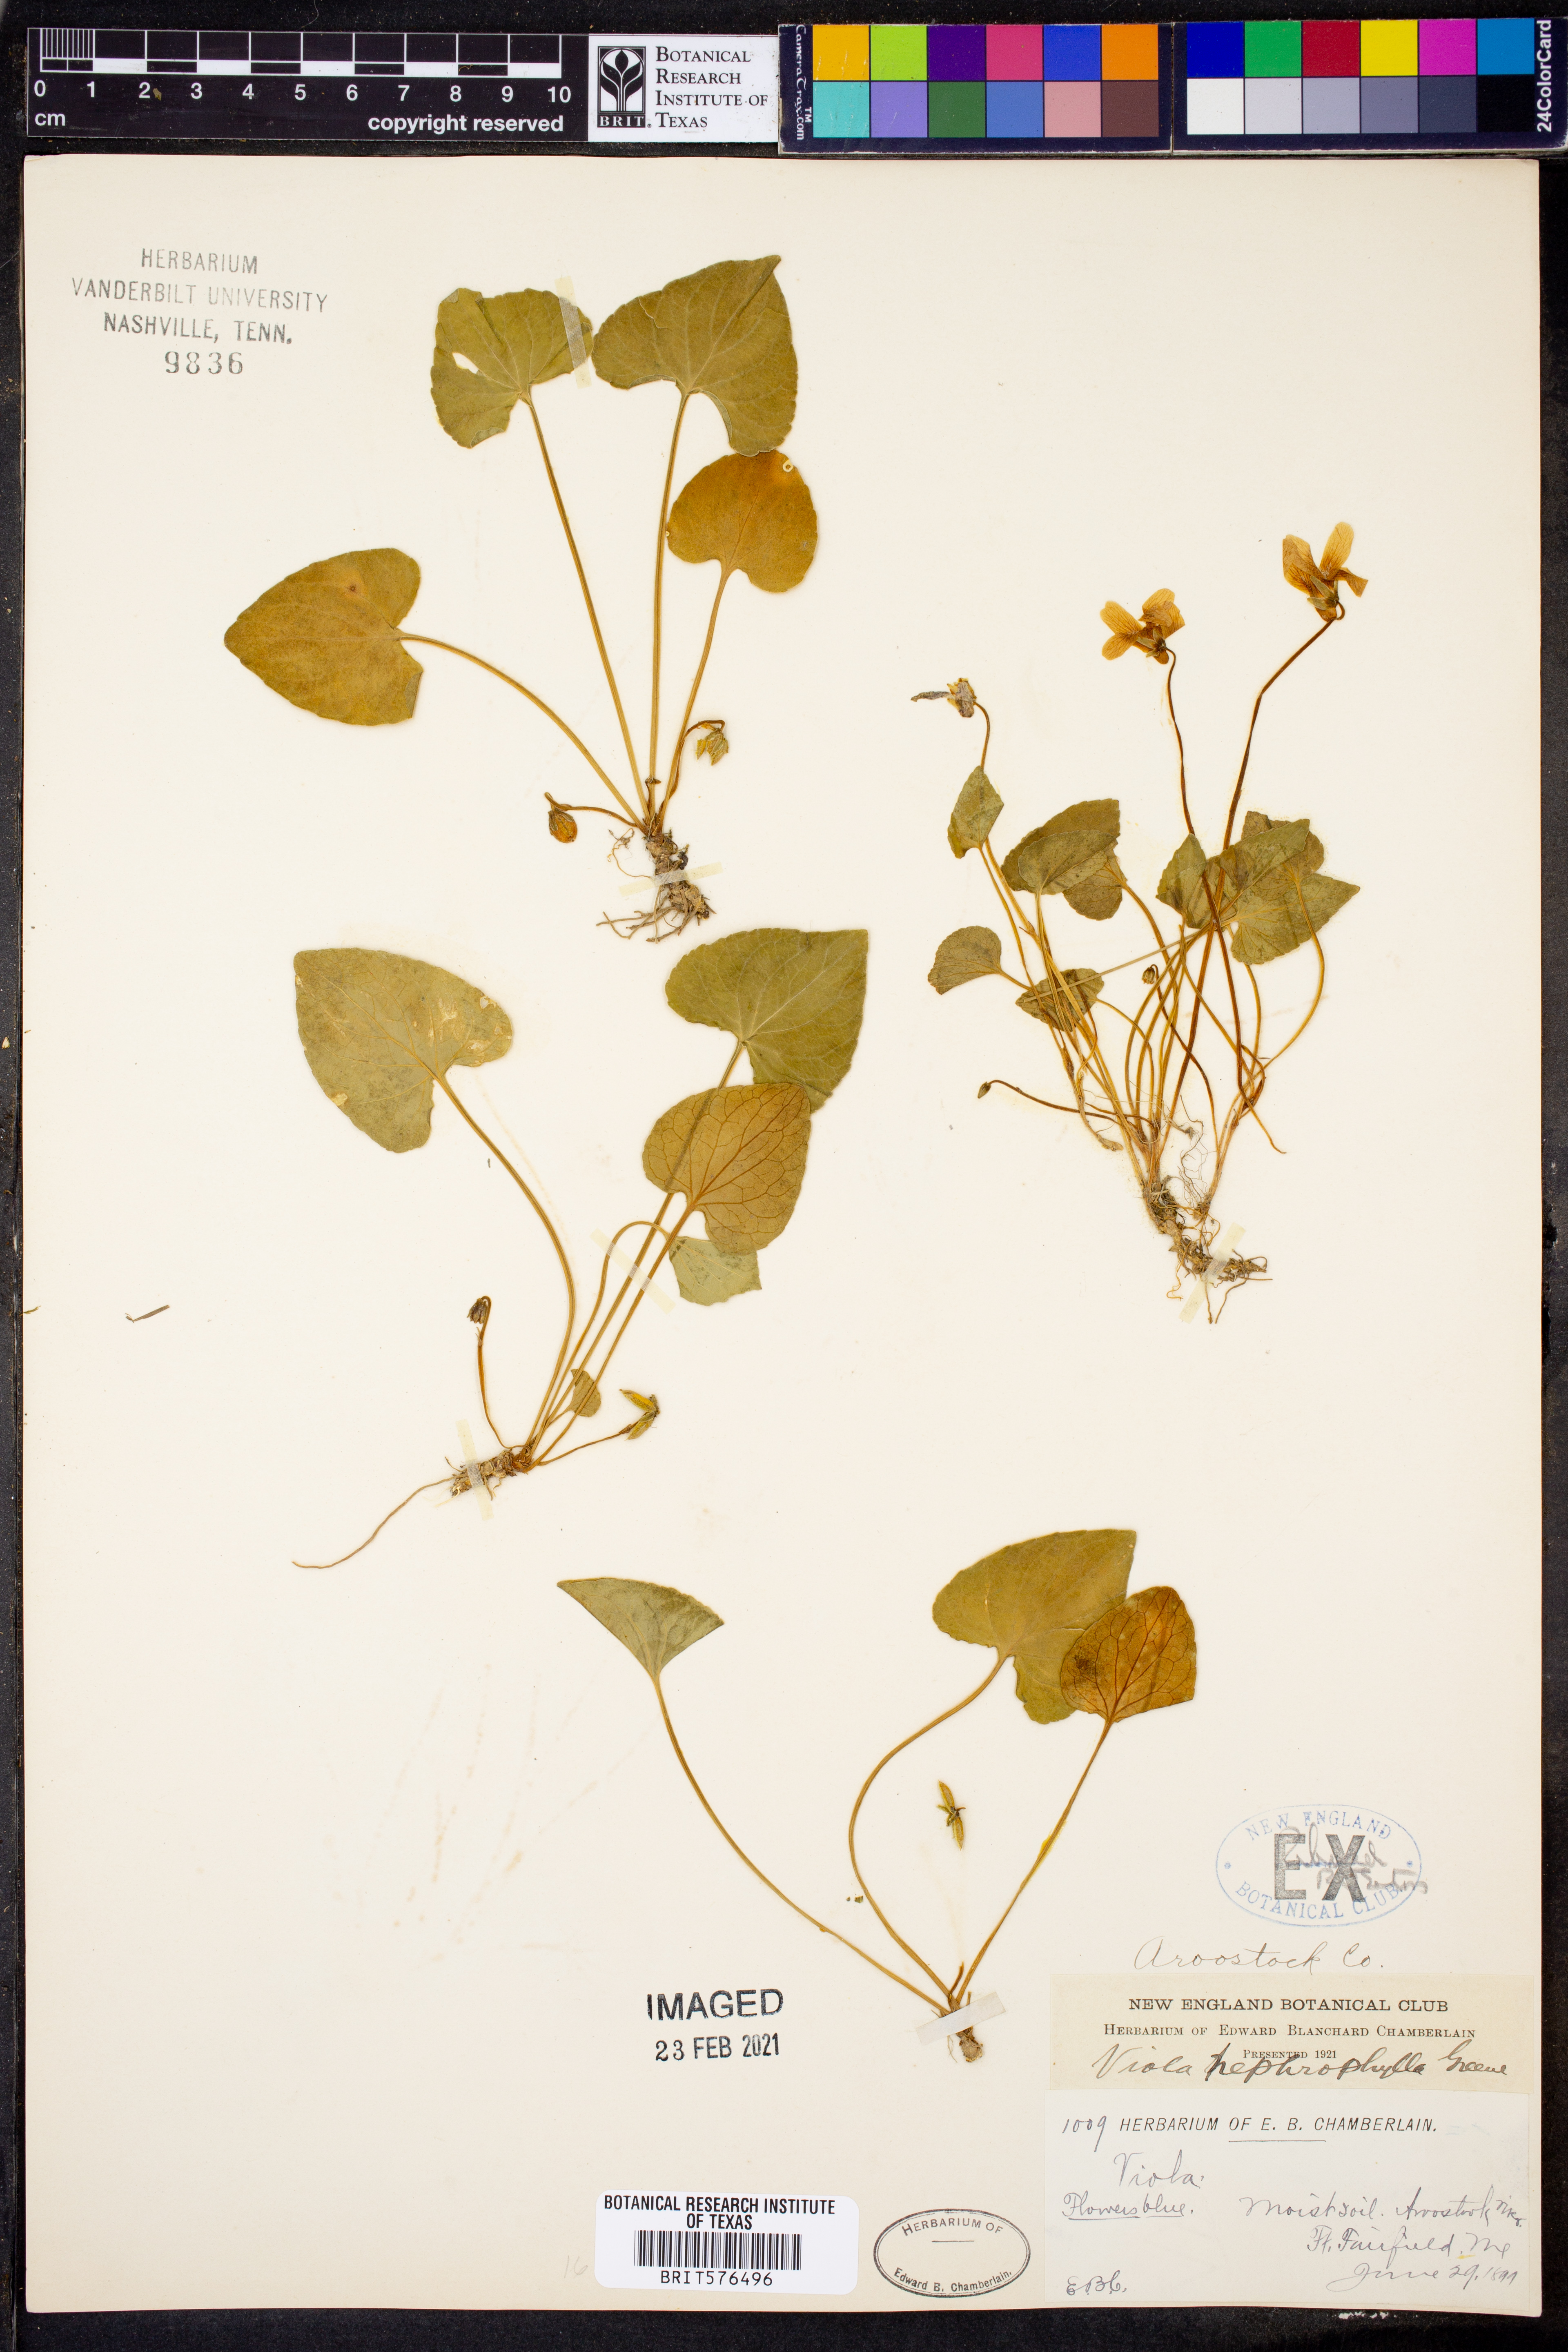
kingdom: Plantae
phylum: Tracheophyta
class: Magnoliopsida
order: Malpighiales
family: Violaceae
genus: Viola
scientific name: Viola nephrophylla
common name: Blue meadow violet
